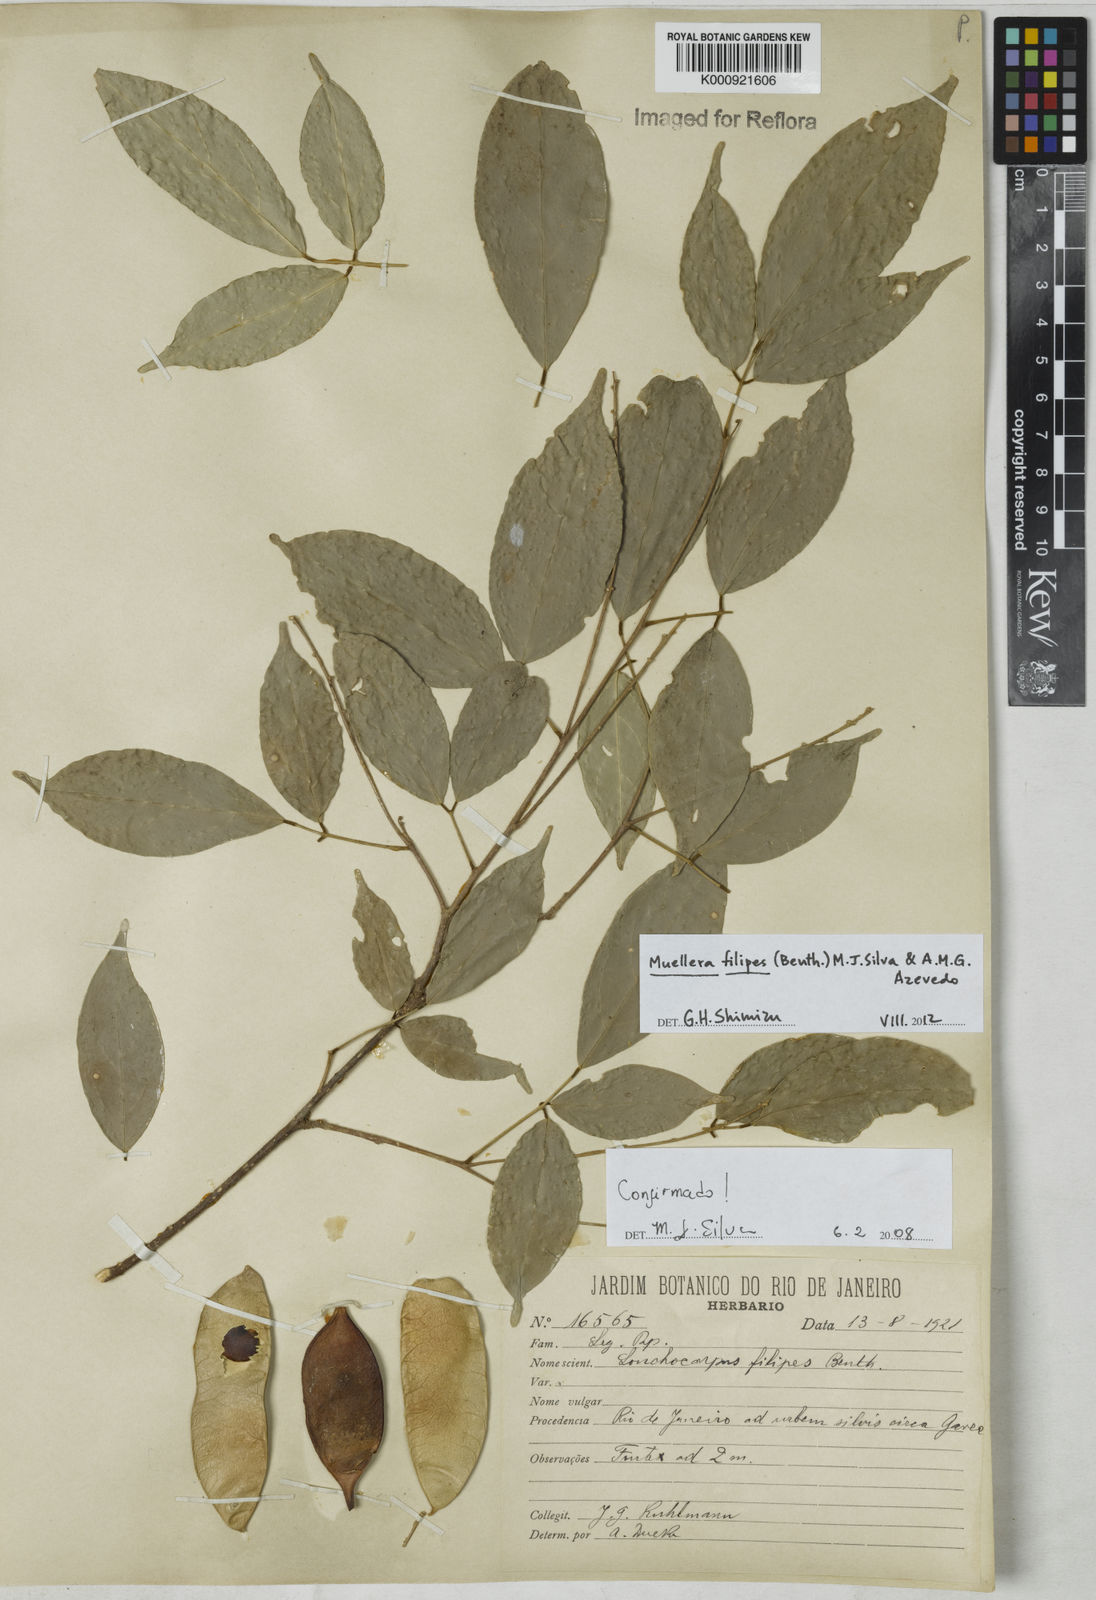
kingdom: Plantae
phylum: Tracheophyta
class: Magnoliopsida
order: Fabales
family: Fabaceae
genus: Muellera
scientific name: Muellera filipes
